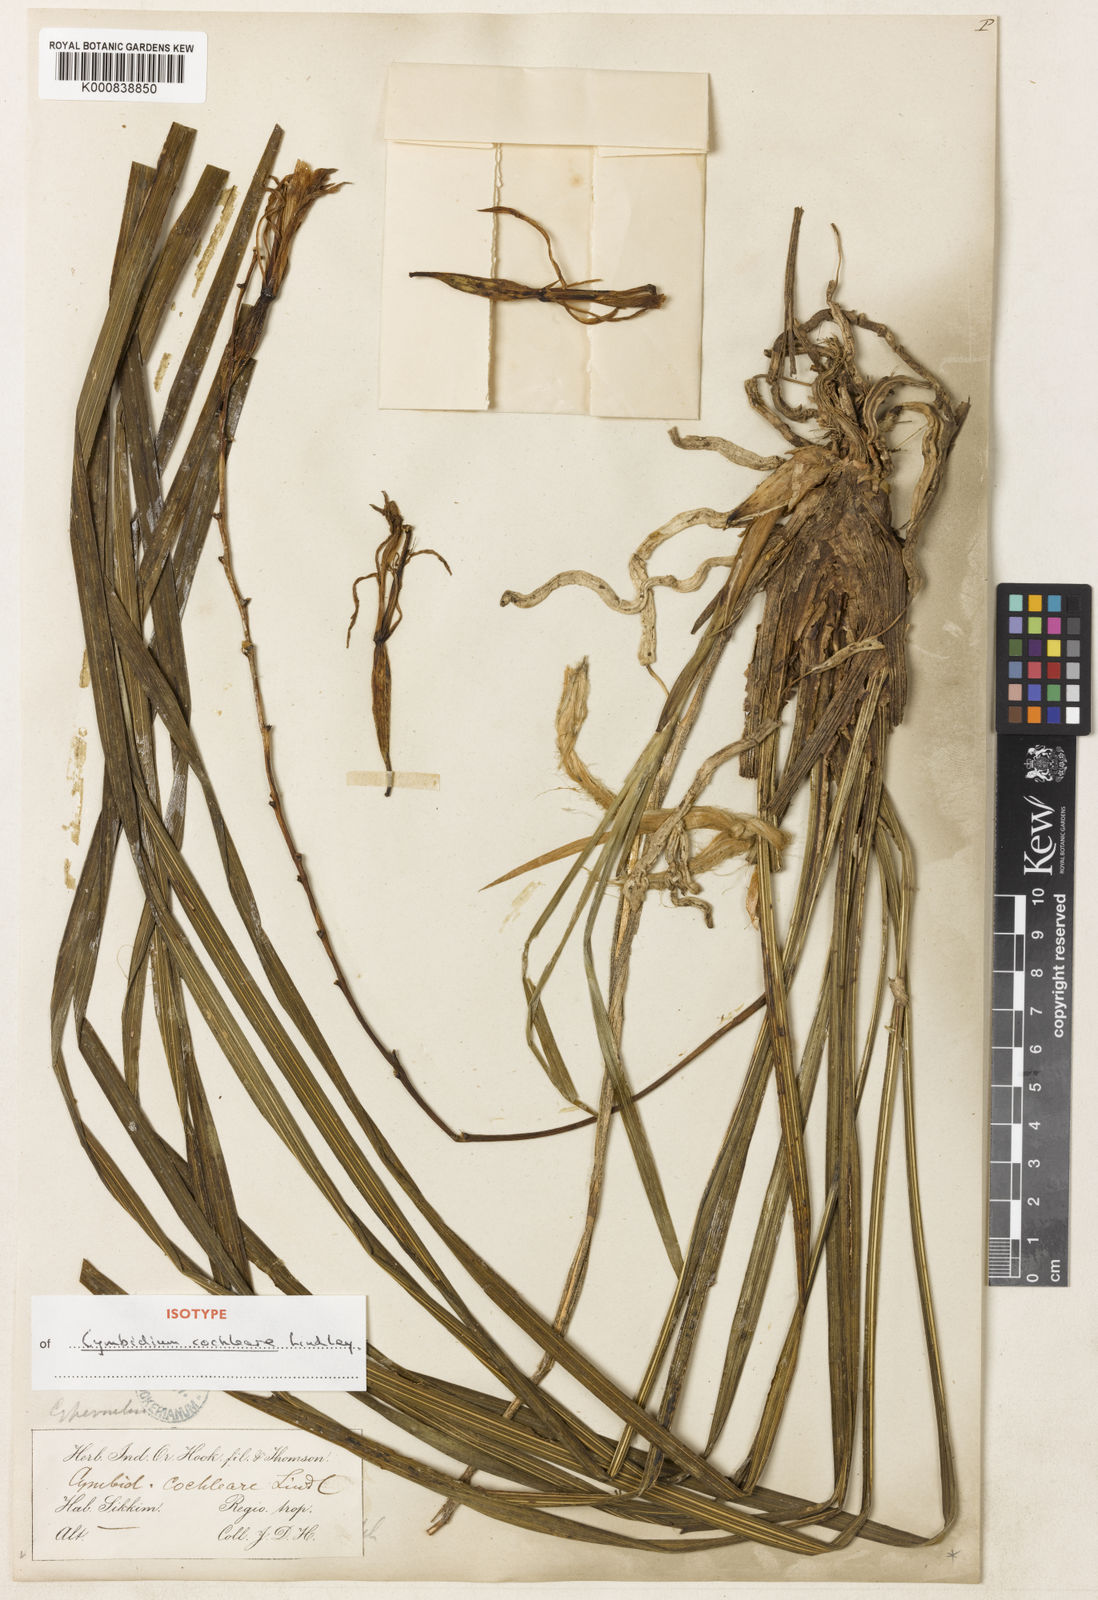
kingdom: Plantae
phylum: Tracheophyta
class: Liliopsida
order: Asparagales
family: Orchidaceae
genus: Cymbidium
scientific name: Cymbidium cochleare
